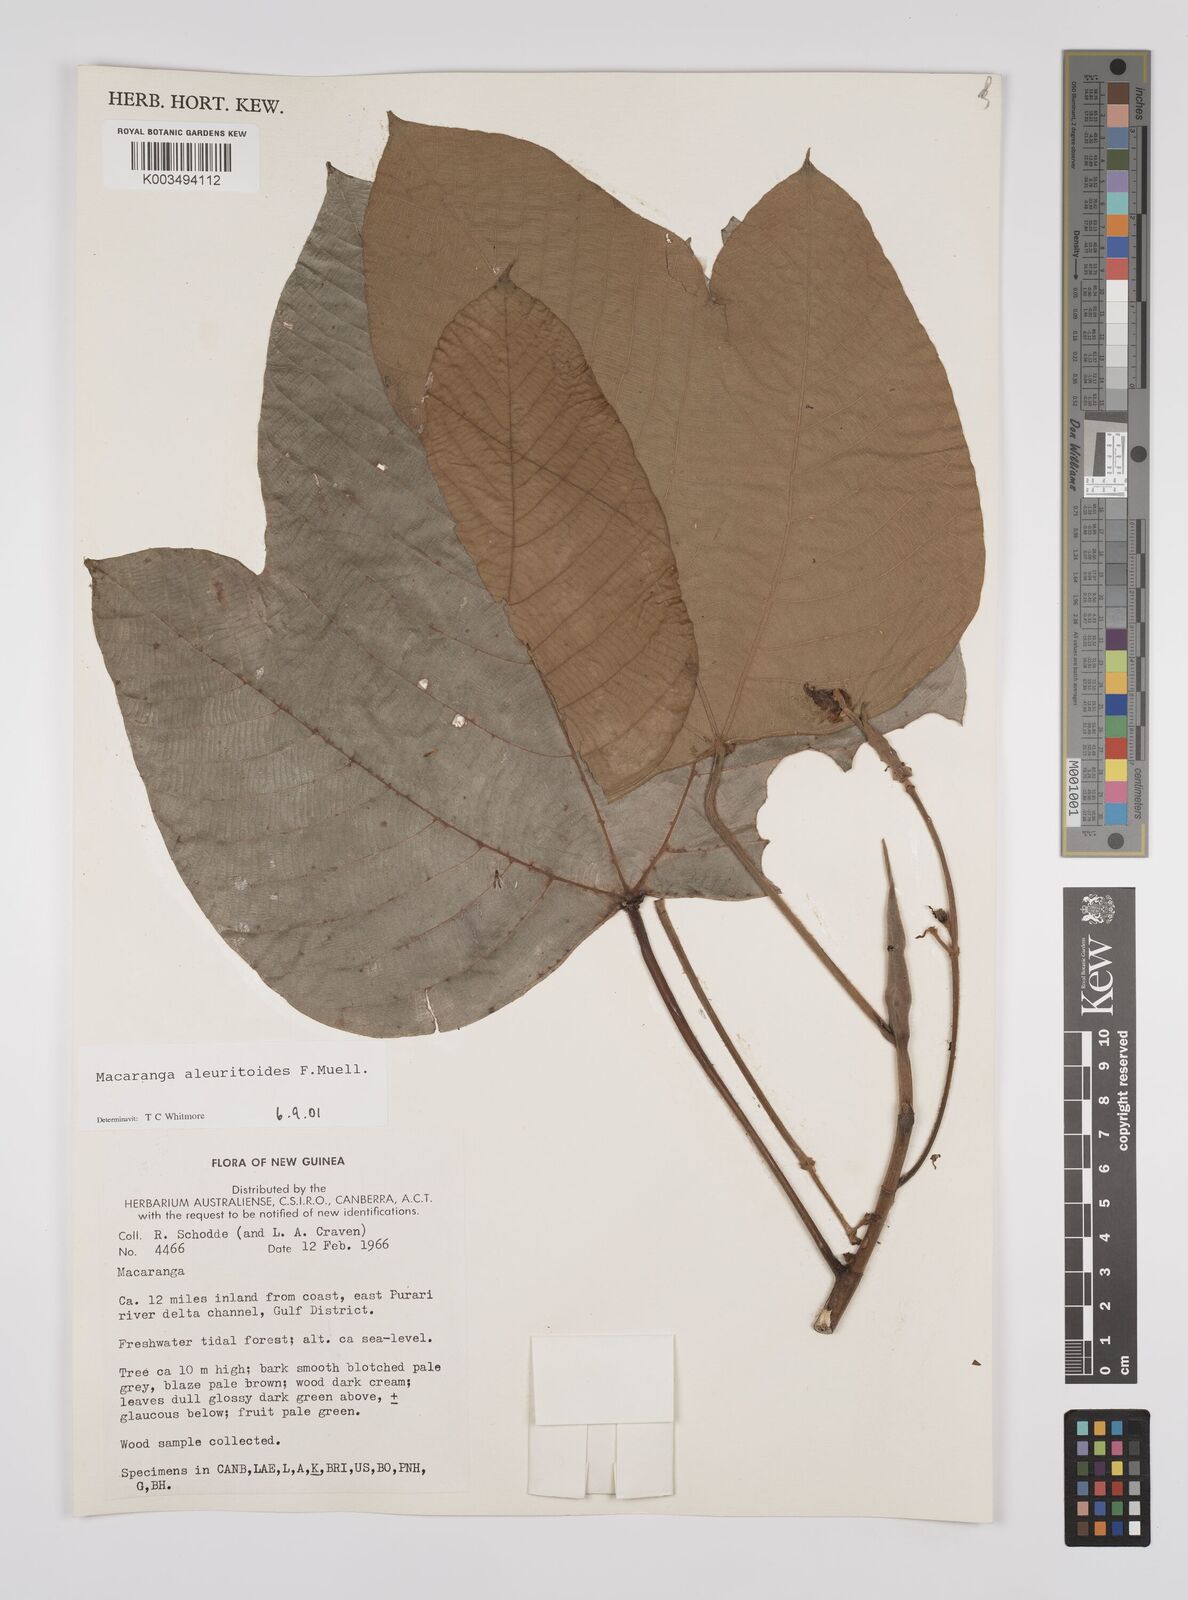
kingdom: Plantae
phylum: Tracheophyta
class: Magnoliopsida
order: Malpighiales
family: Euphorbiaceae
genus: Macaranga
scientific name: Macaranga aleuritoides
